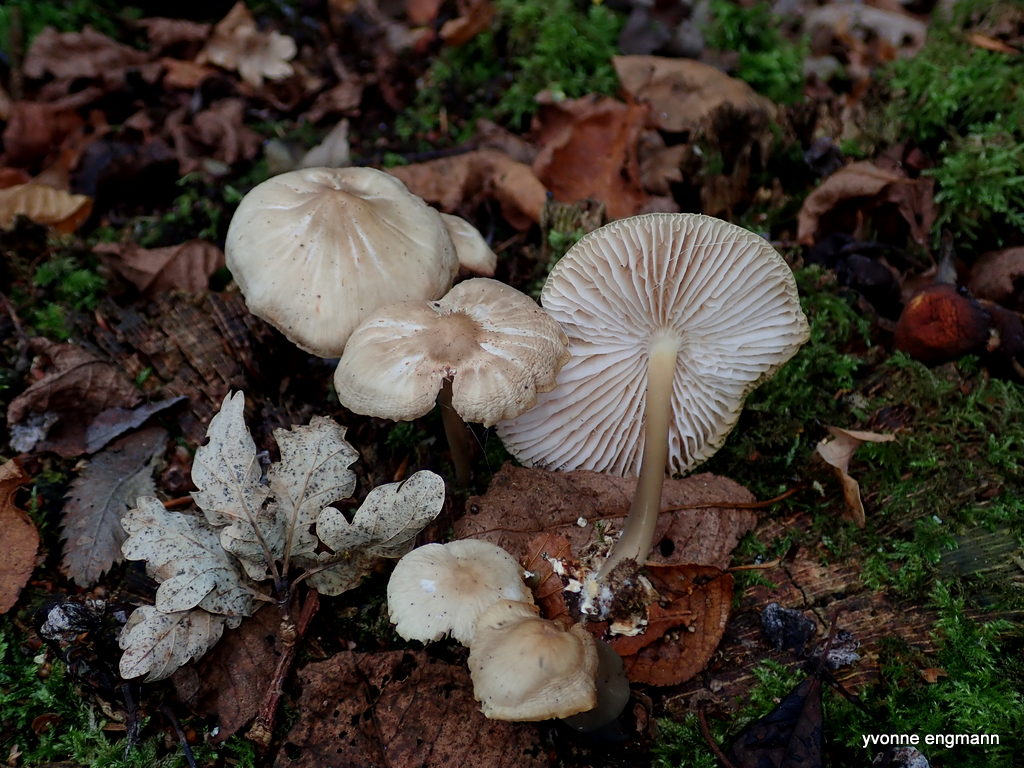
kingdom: Fungi
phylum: Basidiomycota
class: Agaricomycetes
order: Agaricales
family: Mycenaceae
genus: Mycena
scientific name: Mycena galericulata
